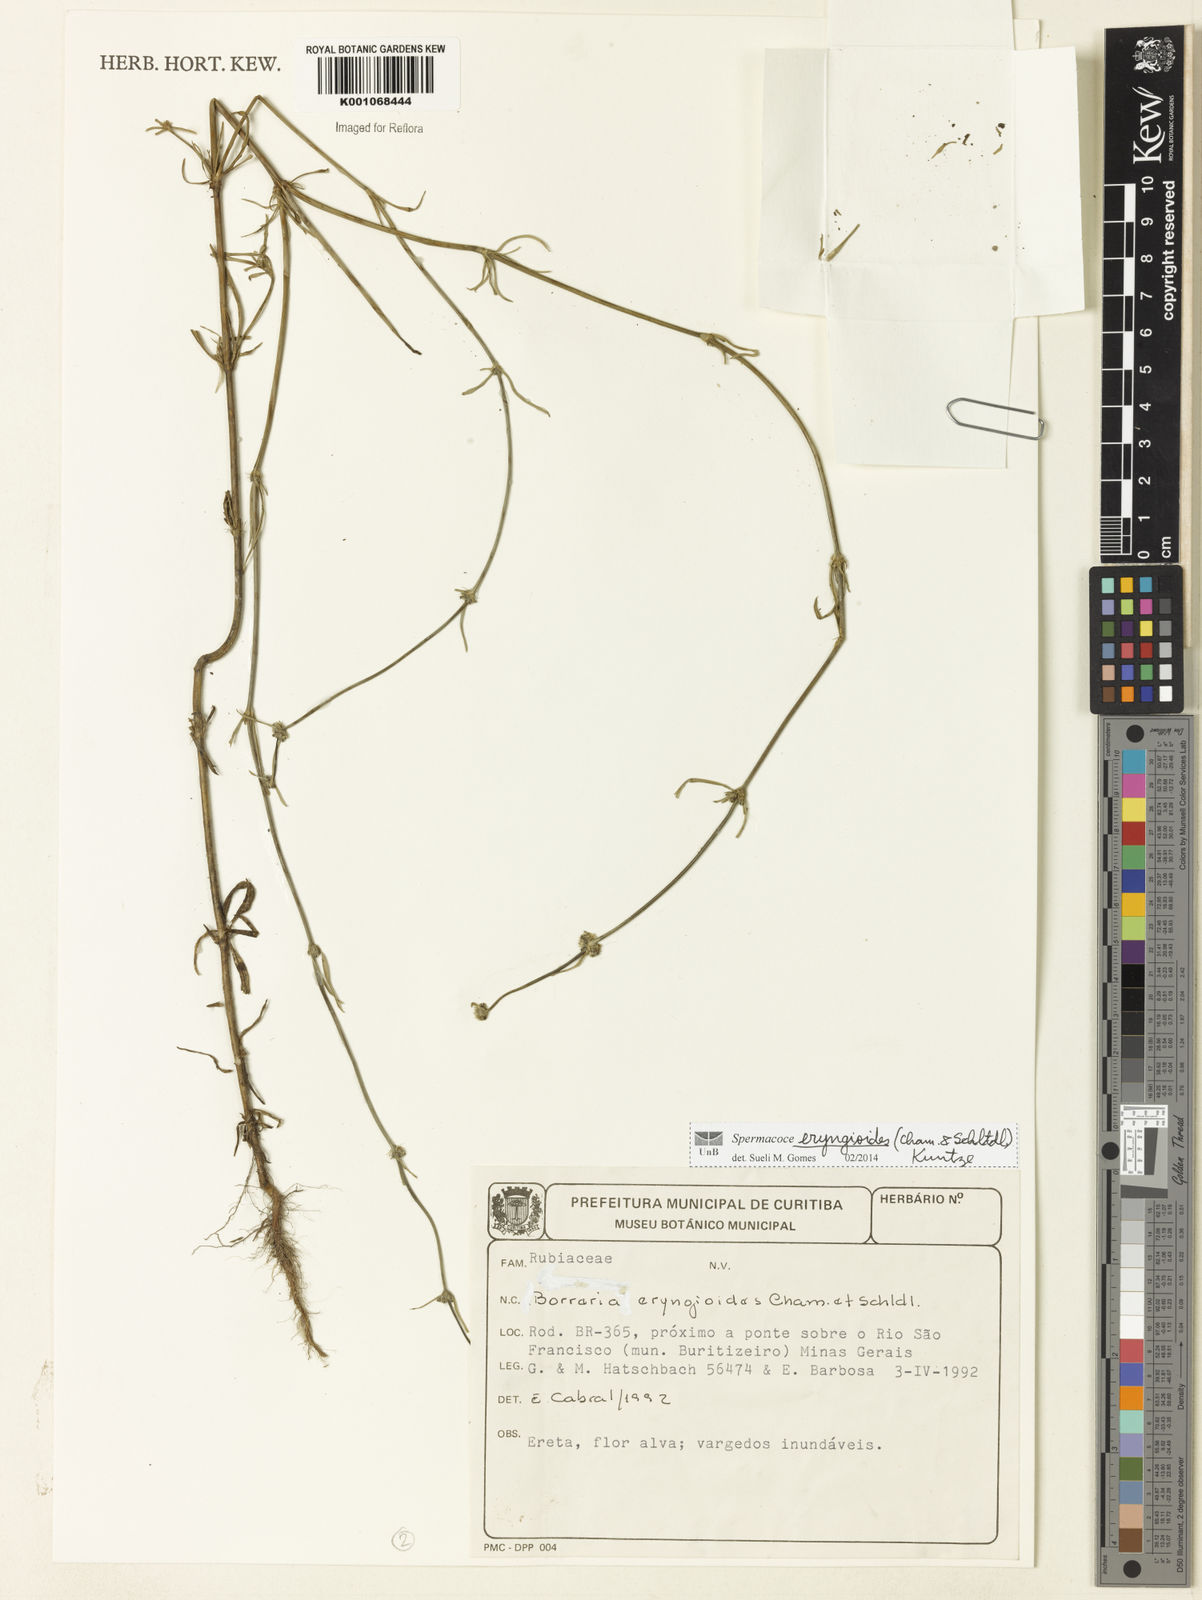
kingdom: Plantae
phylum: Tracheophyta
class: Magnoliopsida
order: Gentianales
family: Rubiaceae
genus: Spermacoce
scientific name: Spermacoce eryngioides
